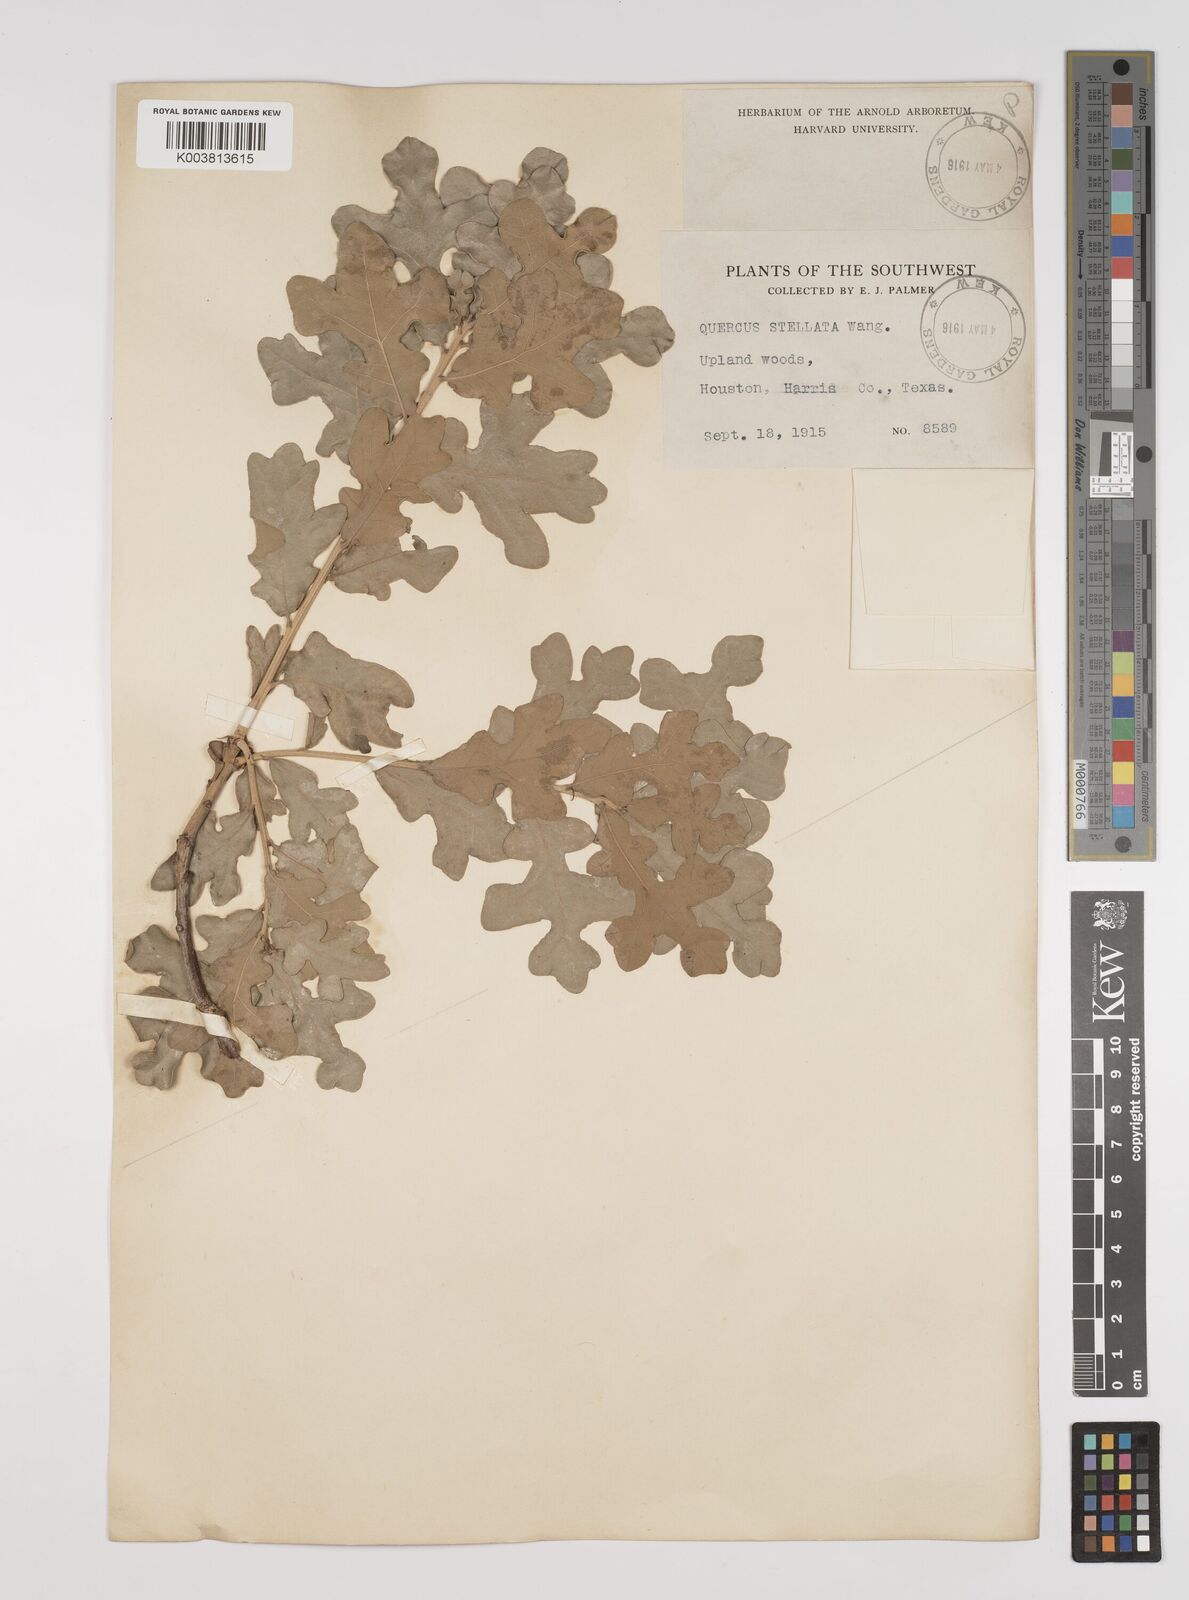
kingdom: Plantae
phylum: Tracheophyta
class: Magnoliopsida
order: Fagales
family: Fagaceae
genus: Quercus
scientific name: Quercus stellata
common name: Post oak
